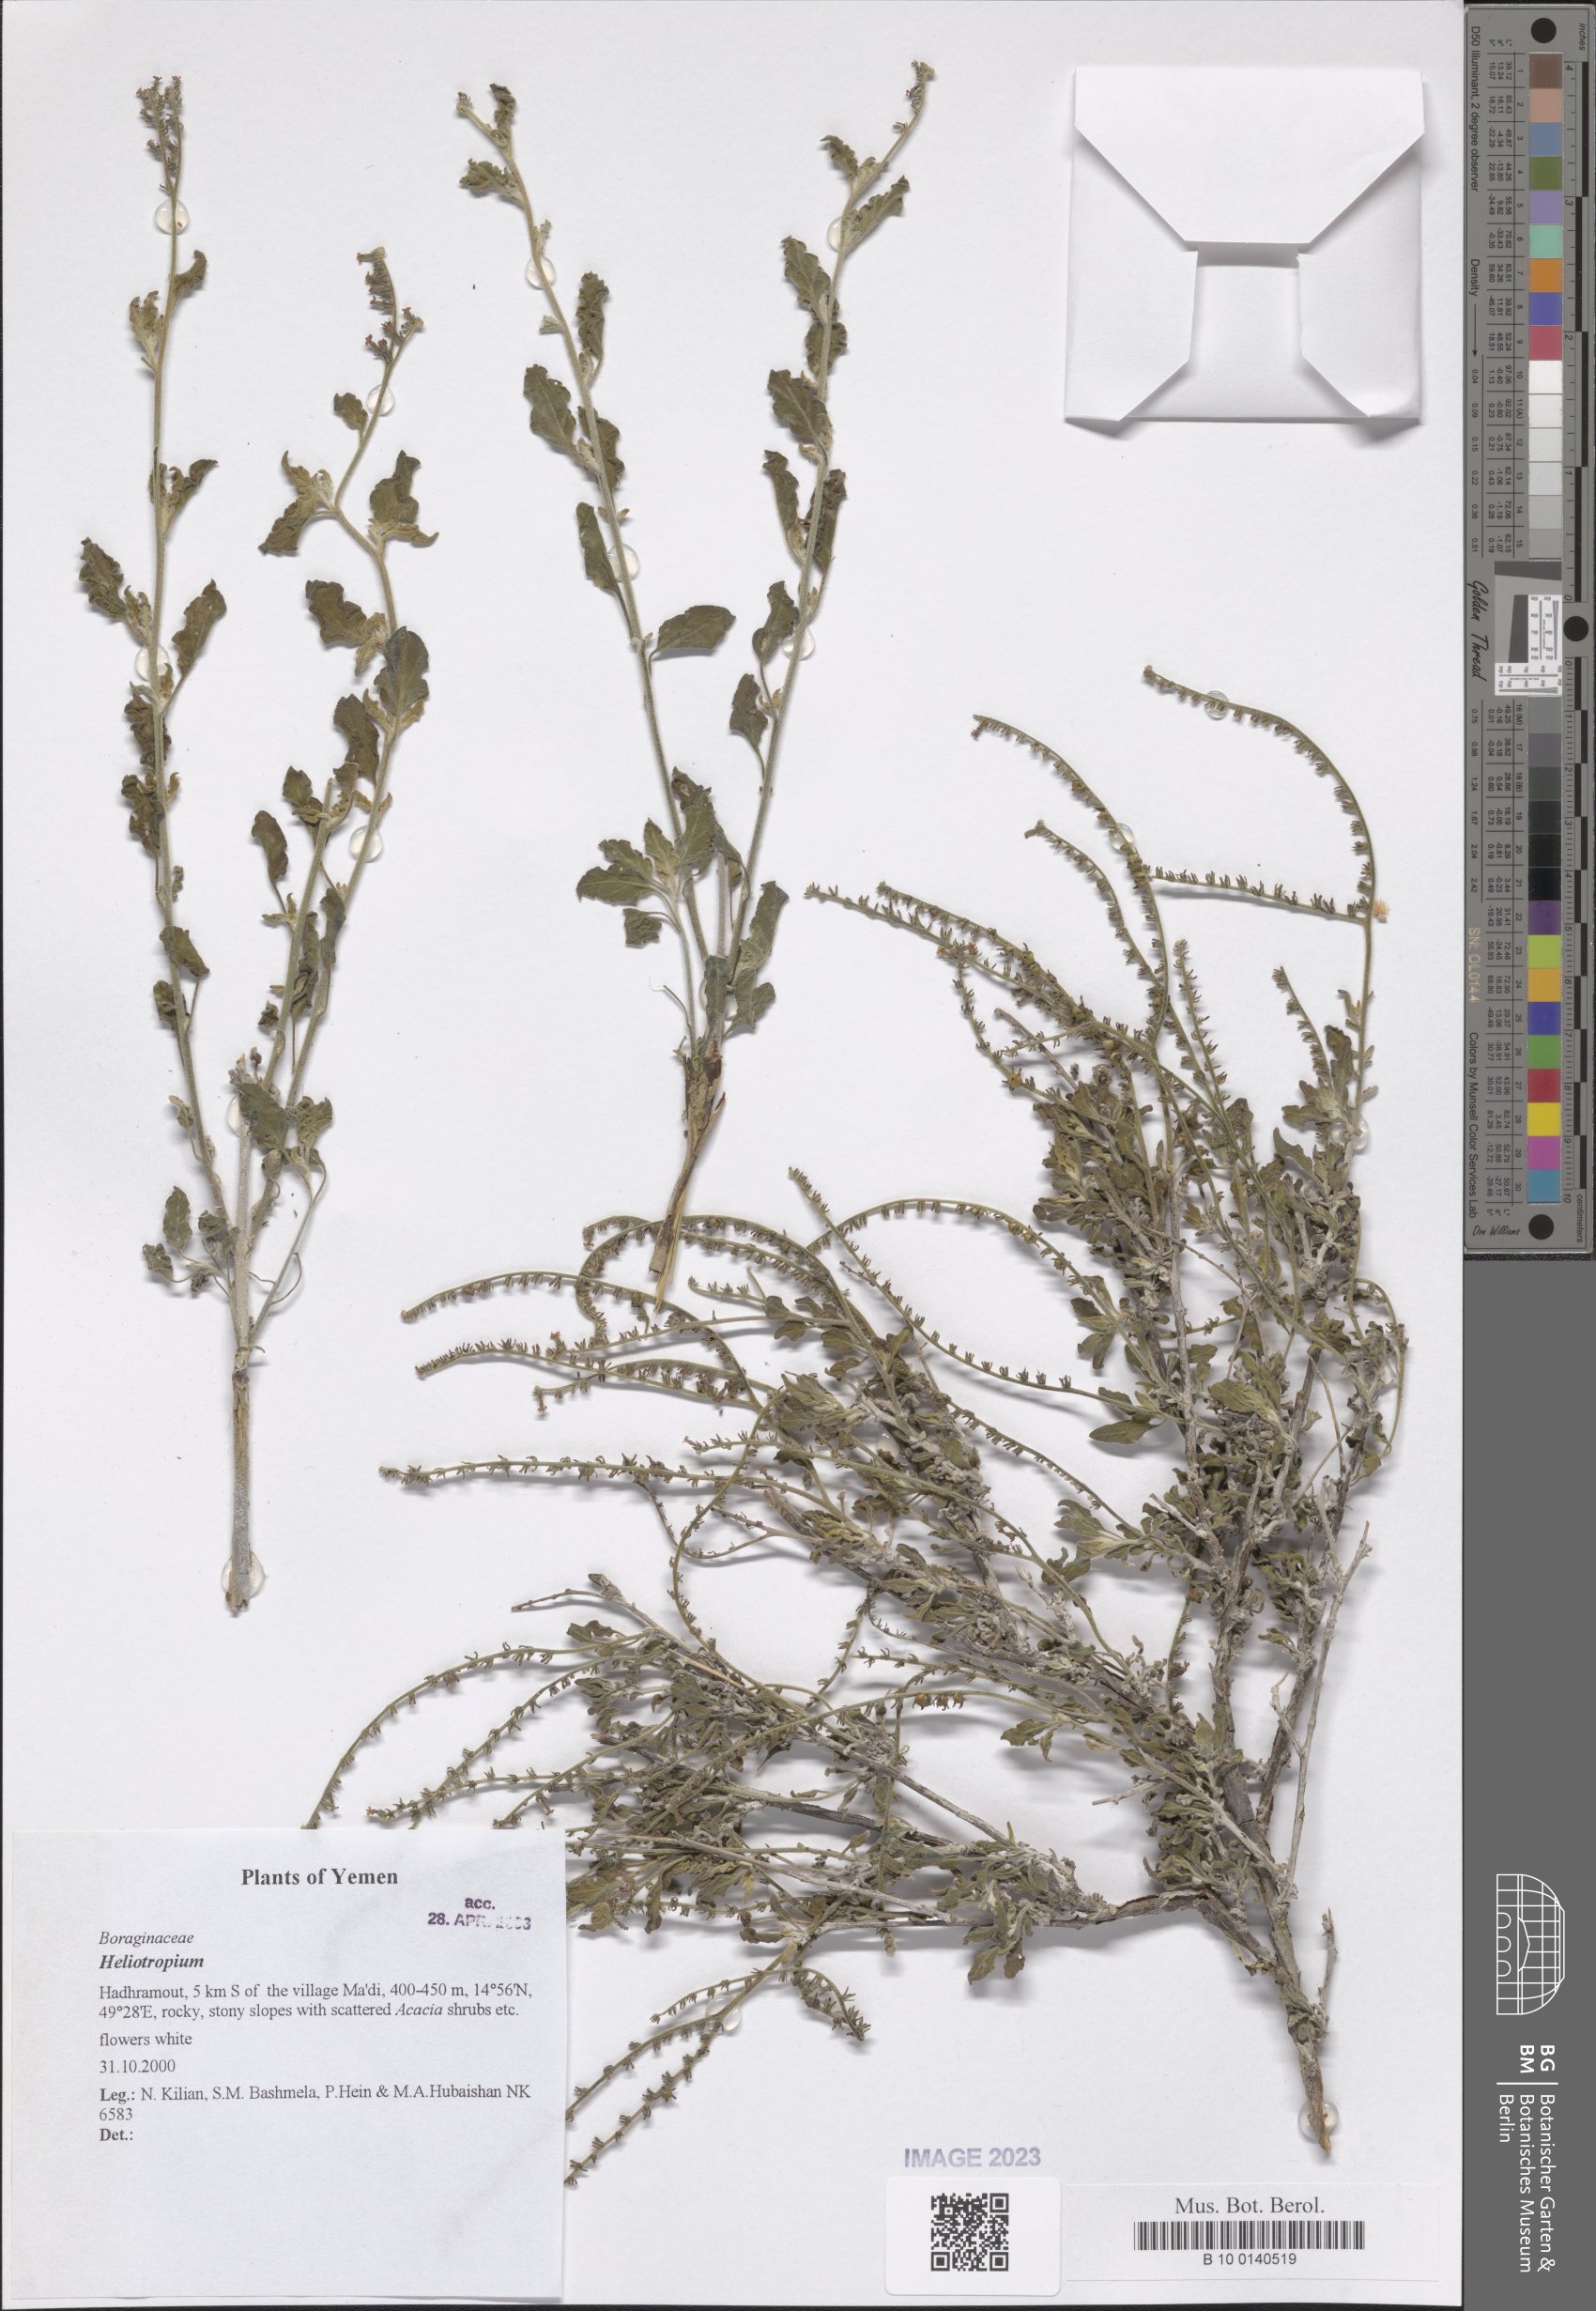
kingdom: Plantae
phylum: Tracheophyta
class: Magnoliopsida
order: Boraginales
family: Heliotropiaceae
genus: Heliotropium
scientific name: Heliotropium
